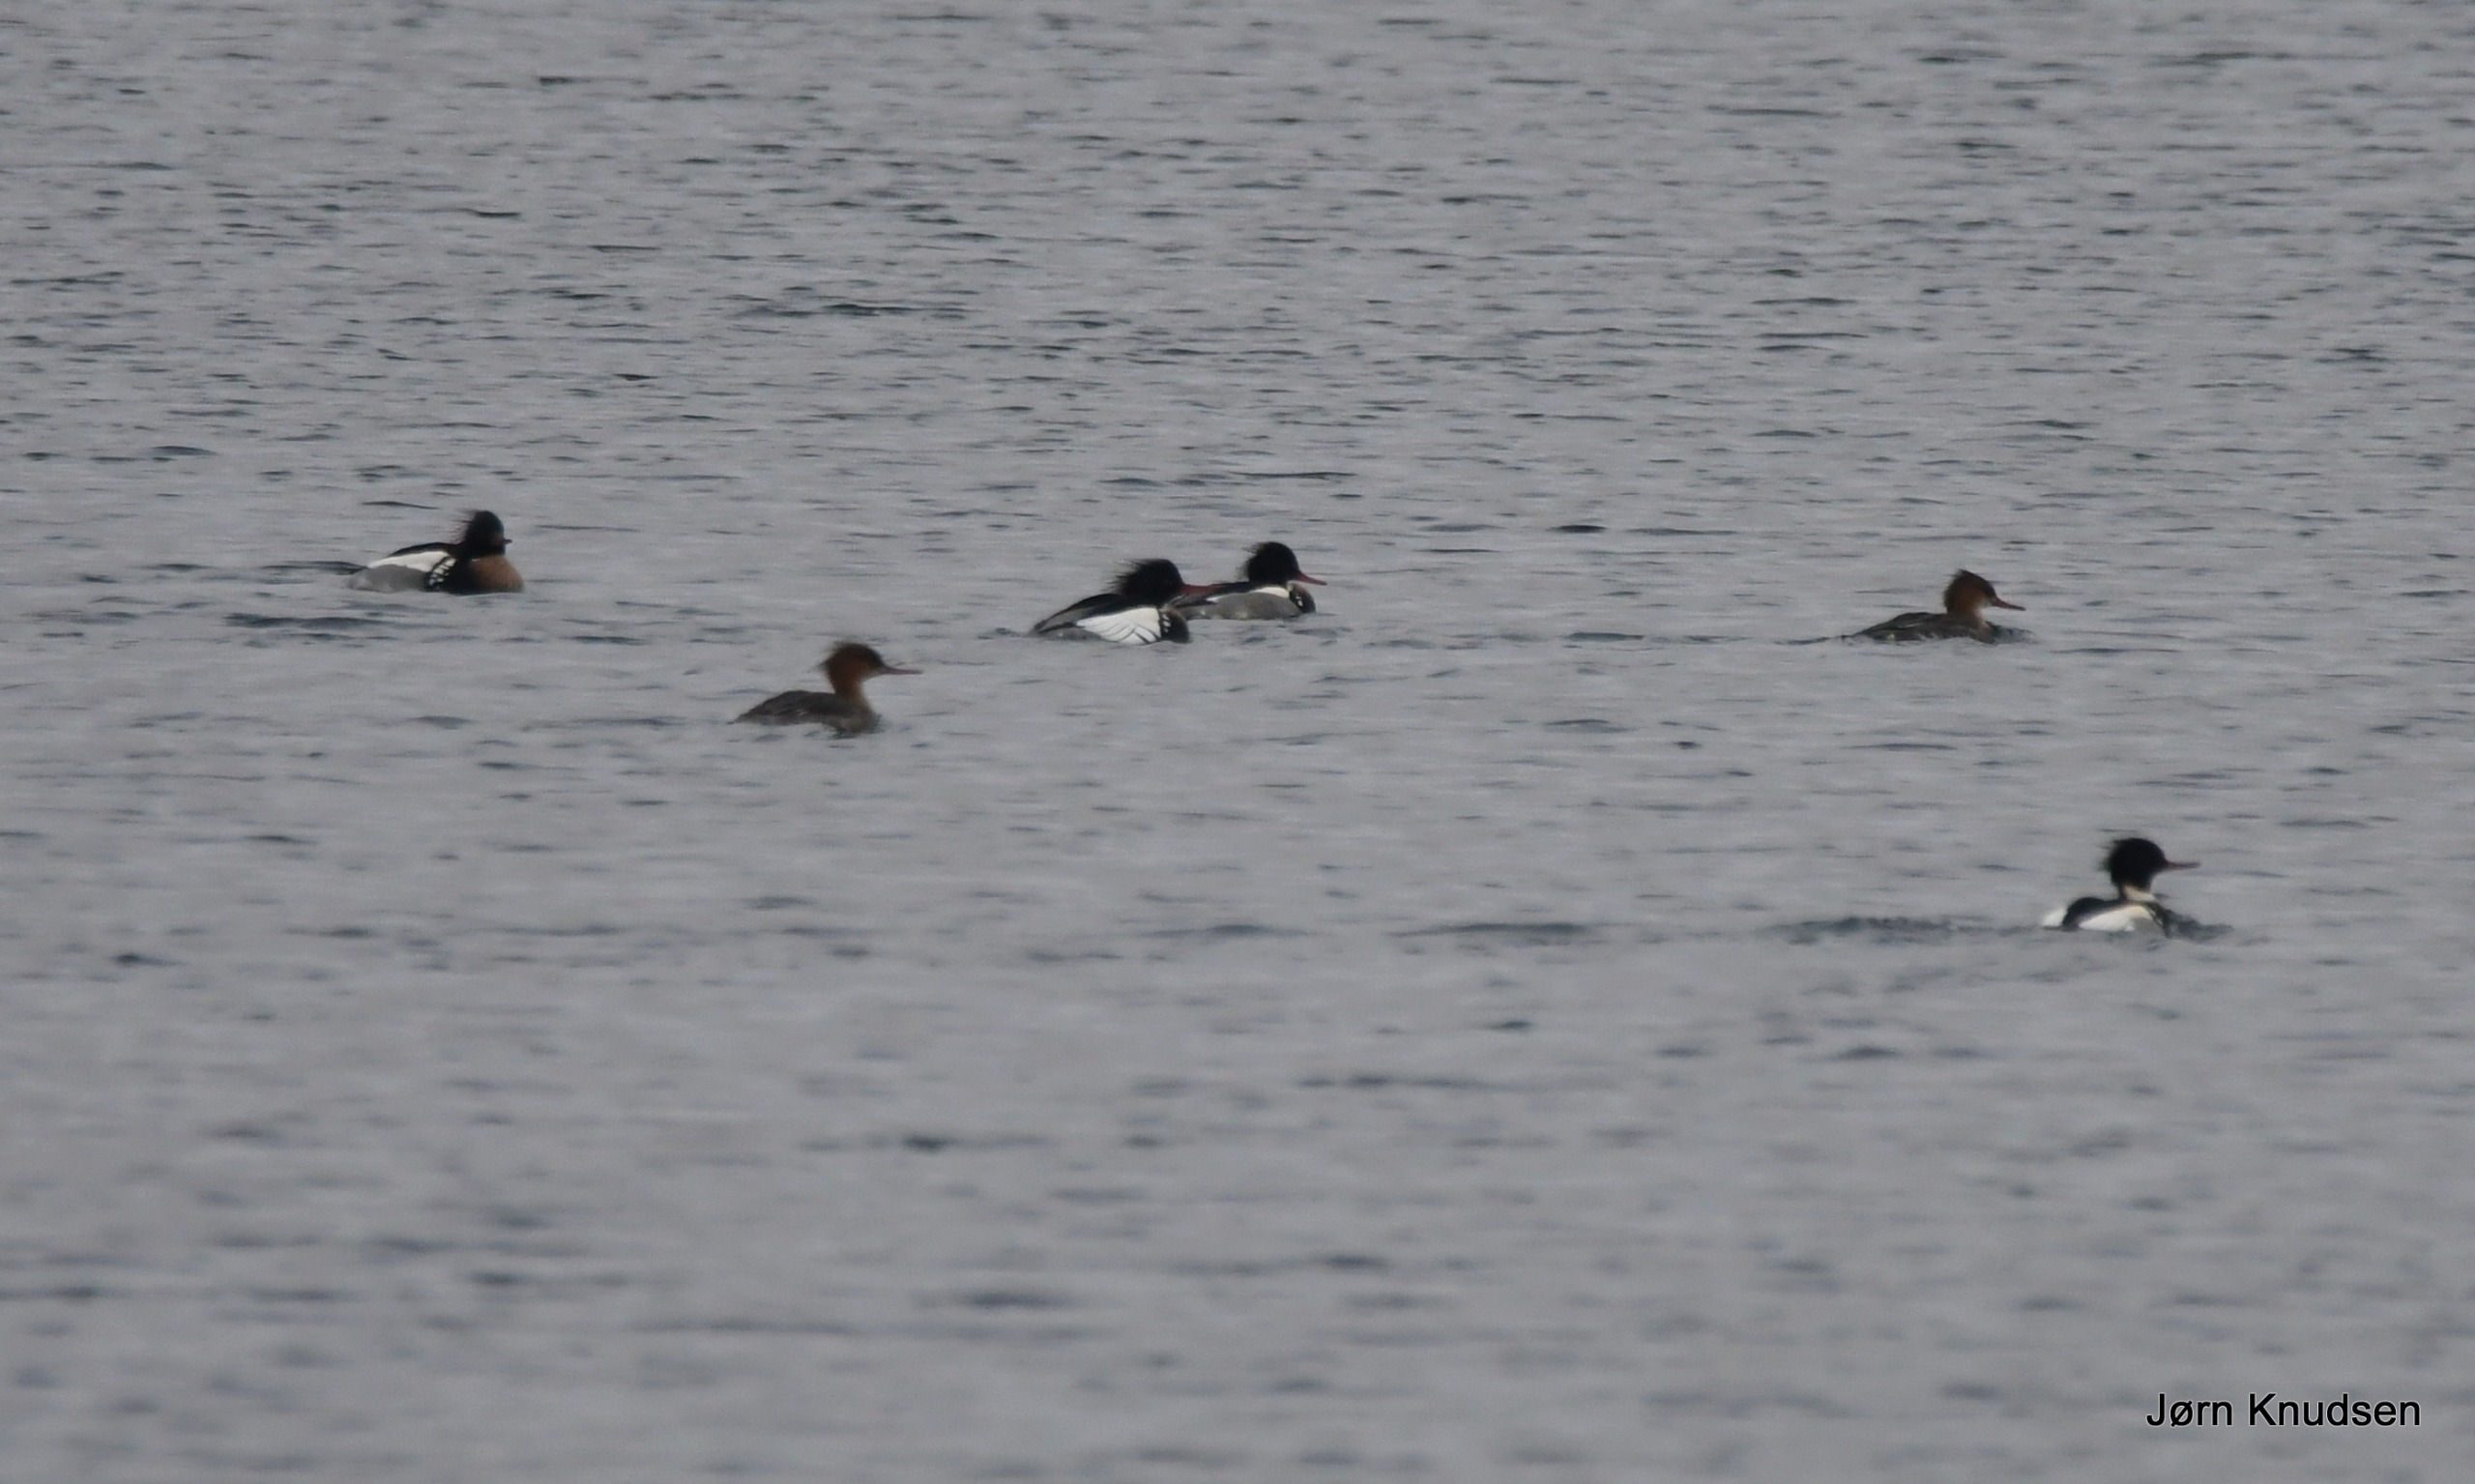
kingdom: Animalia
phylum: Chordata
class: Aves
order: Anseriformes
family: Anatidae
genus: Mergus
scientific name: Mergus serrator
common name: Toppet skallesluger
